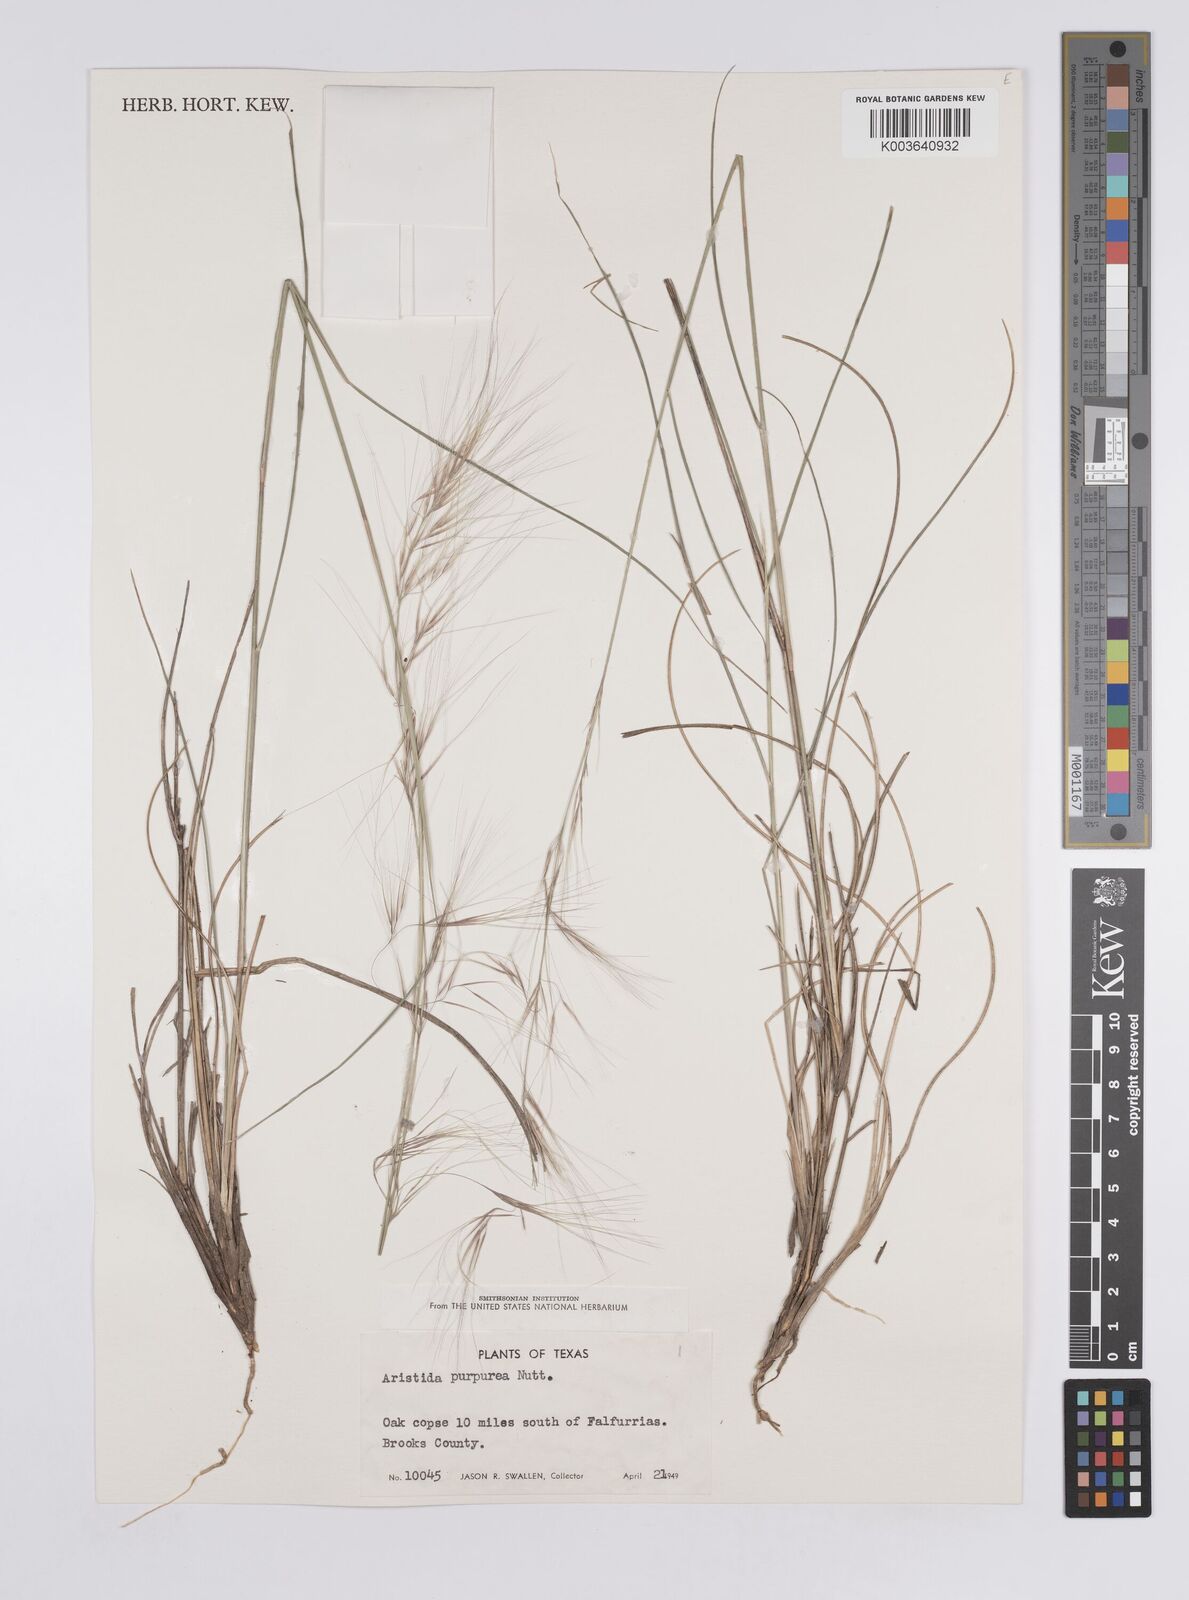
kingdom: Plantae
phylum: Tracheophyta
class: Liliopsida
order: Poales
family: Poaceae
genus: Aristida
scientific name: Aristida purpurea
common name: Purple threeawn
